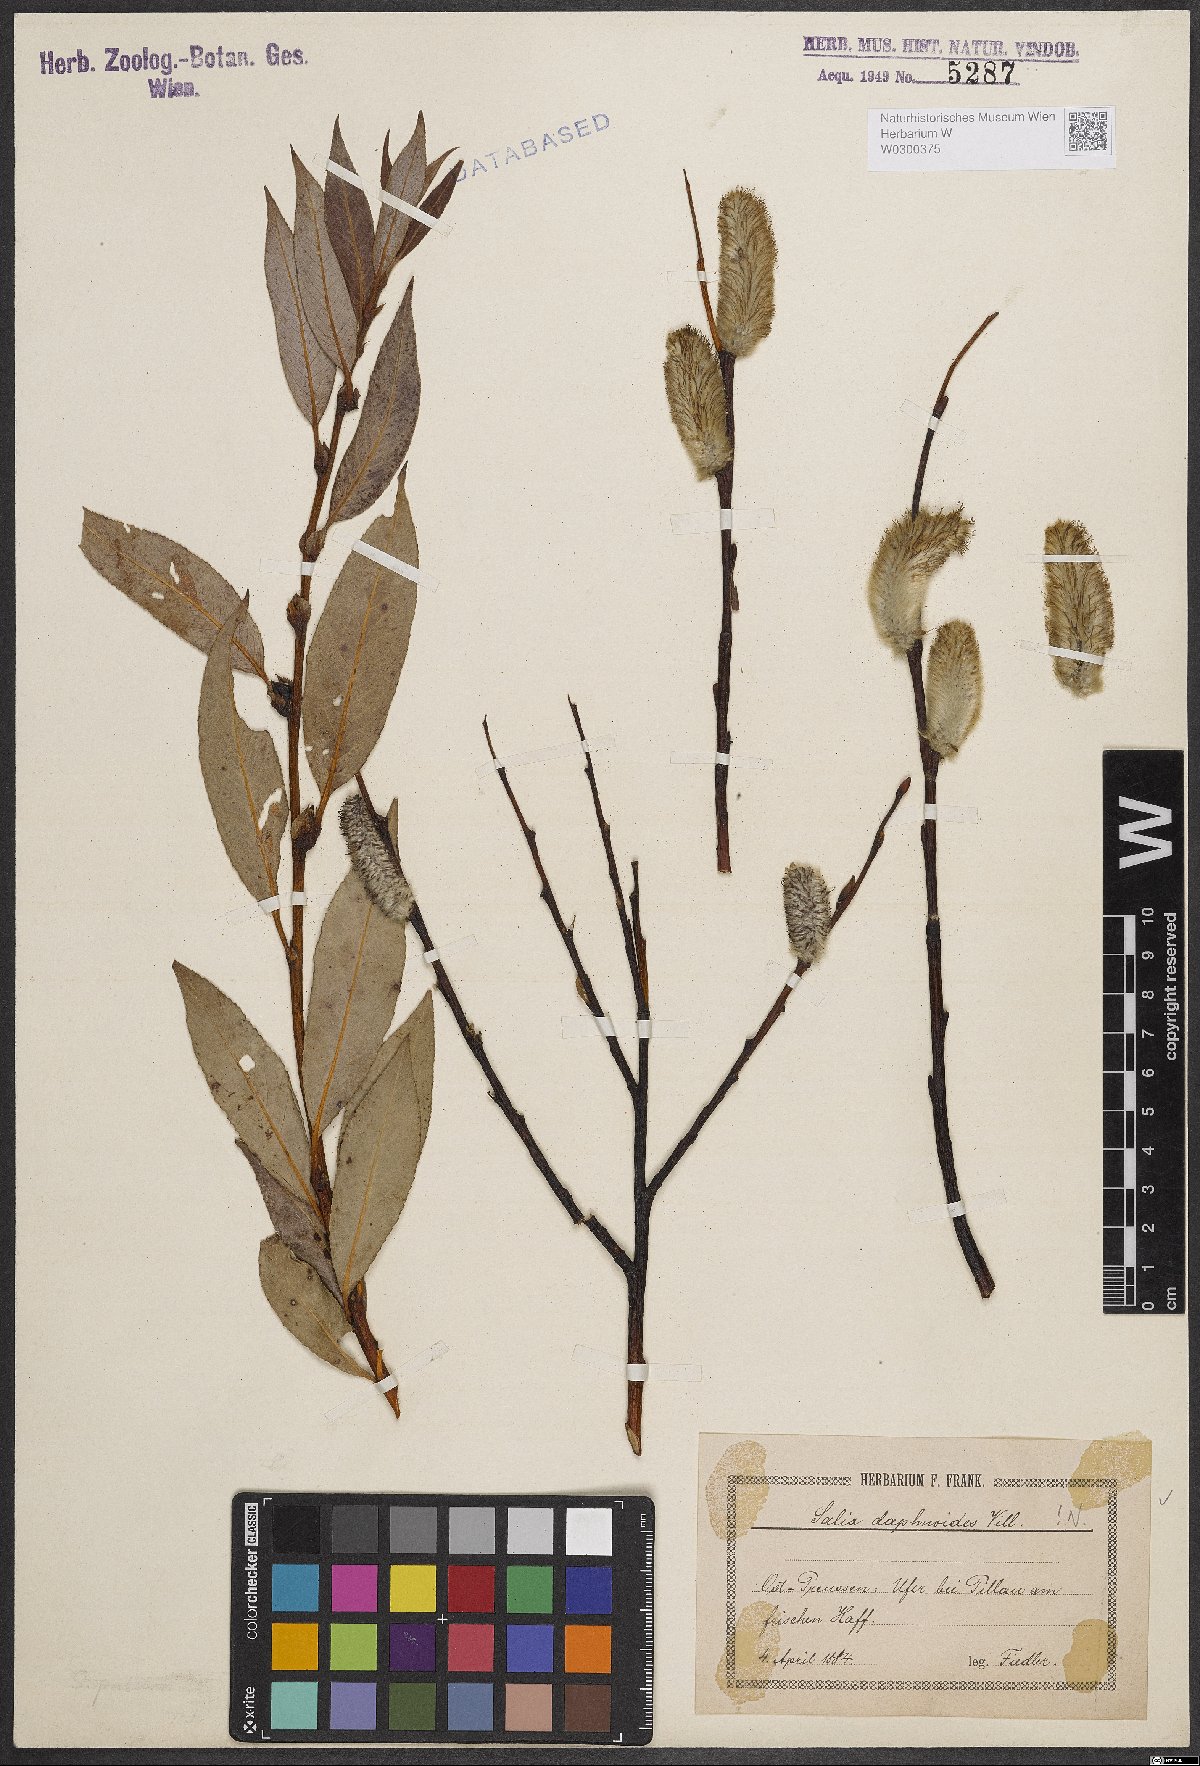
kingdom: Plantae
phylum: Tracheophyta
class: Magnoliopsida
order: Malpighiales
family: Salicaceae
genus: Salix
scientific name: Salix daphnoides
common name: European violet-willow
